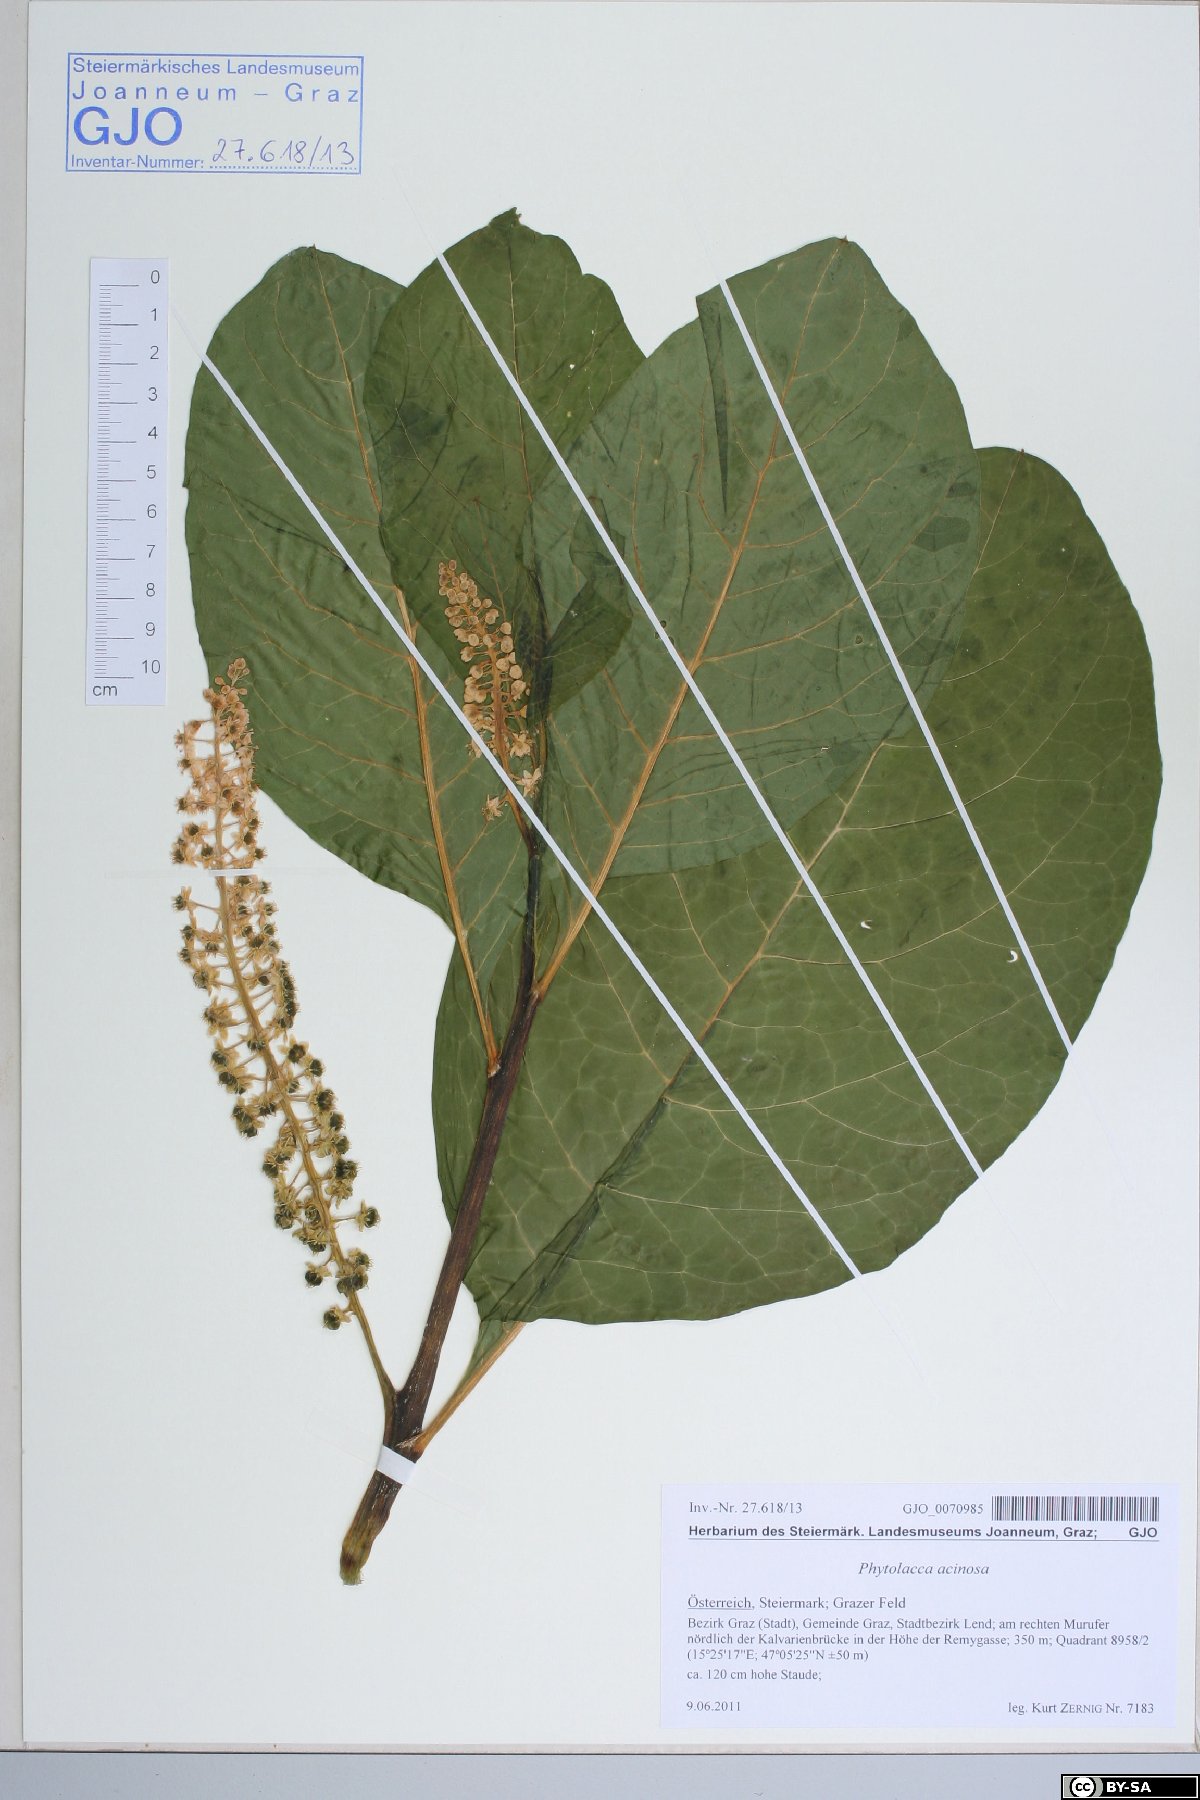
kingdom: Plantae
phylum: Tracheophyta
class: Magnoliopsida
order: Caryophyllales
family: Phytolaccaceae
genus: Phytolacca
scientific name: Phytolacca acinosa
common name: Indian pokeweed
